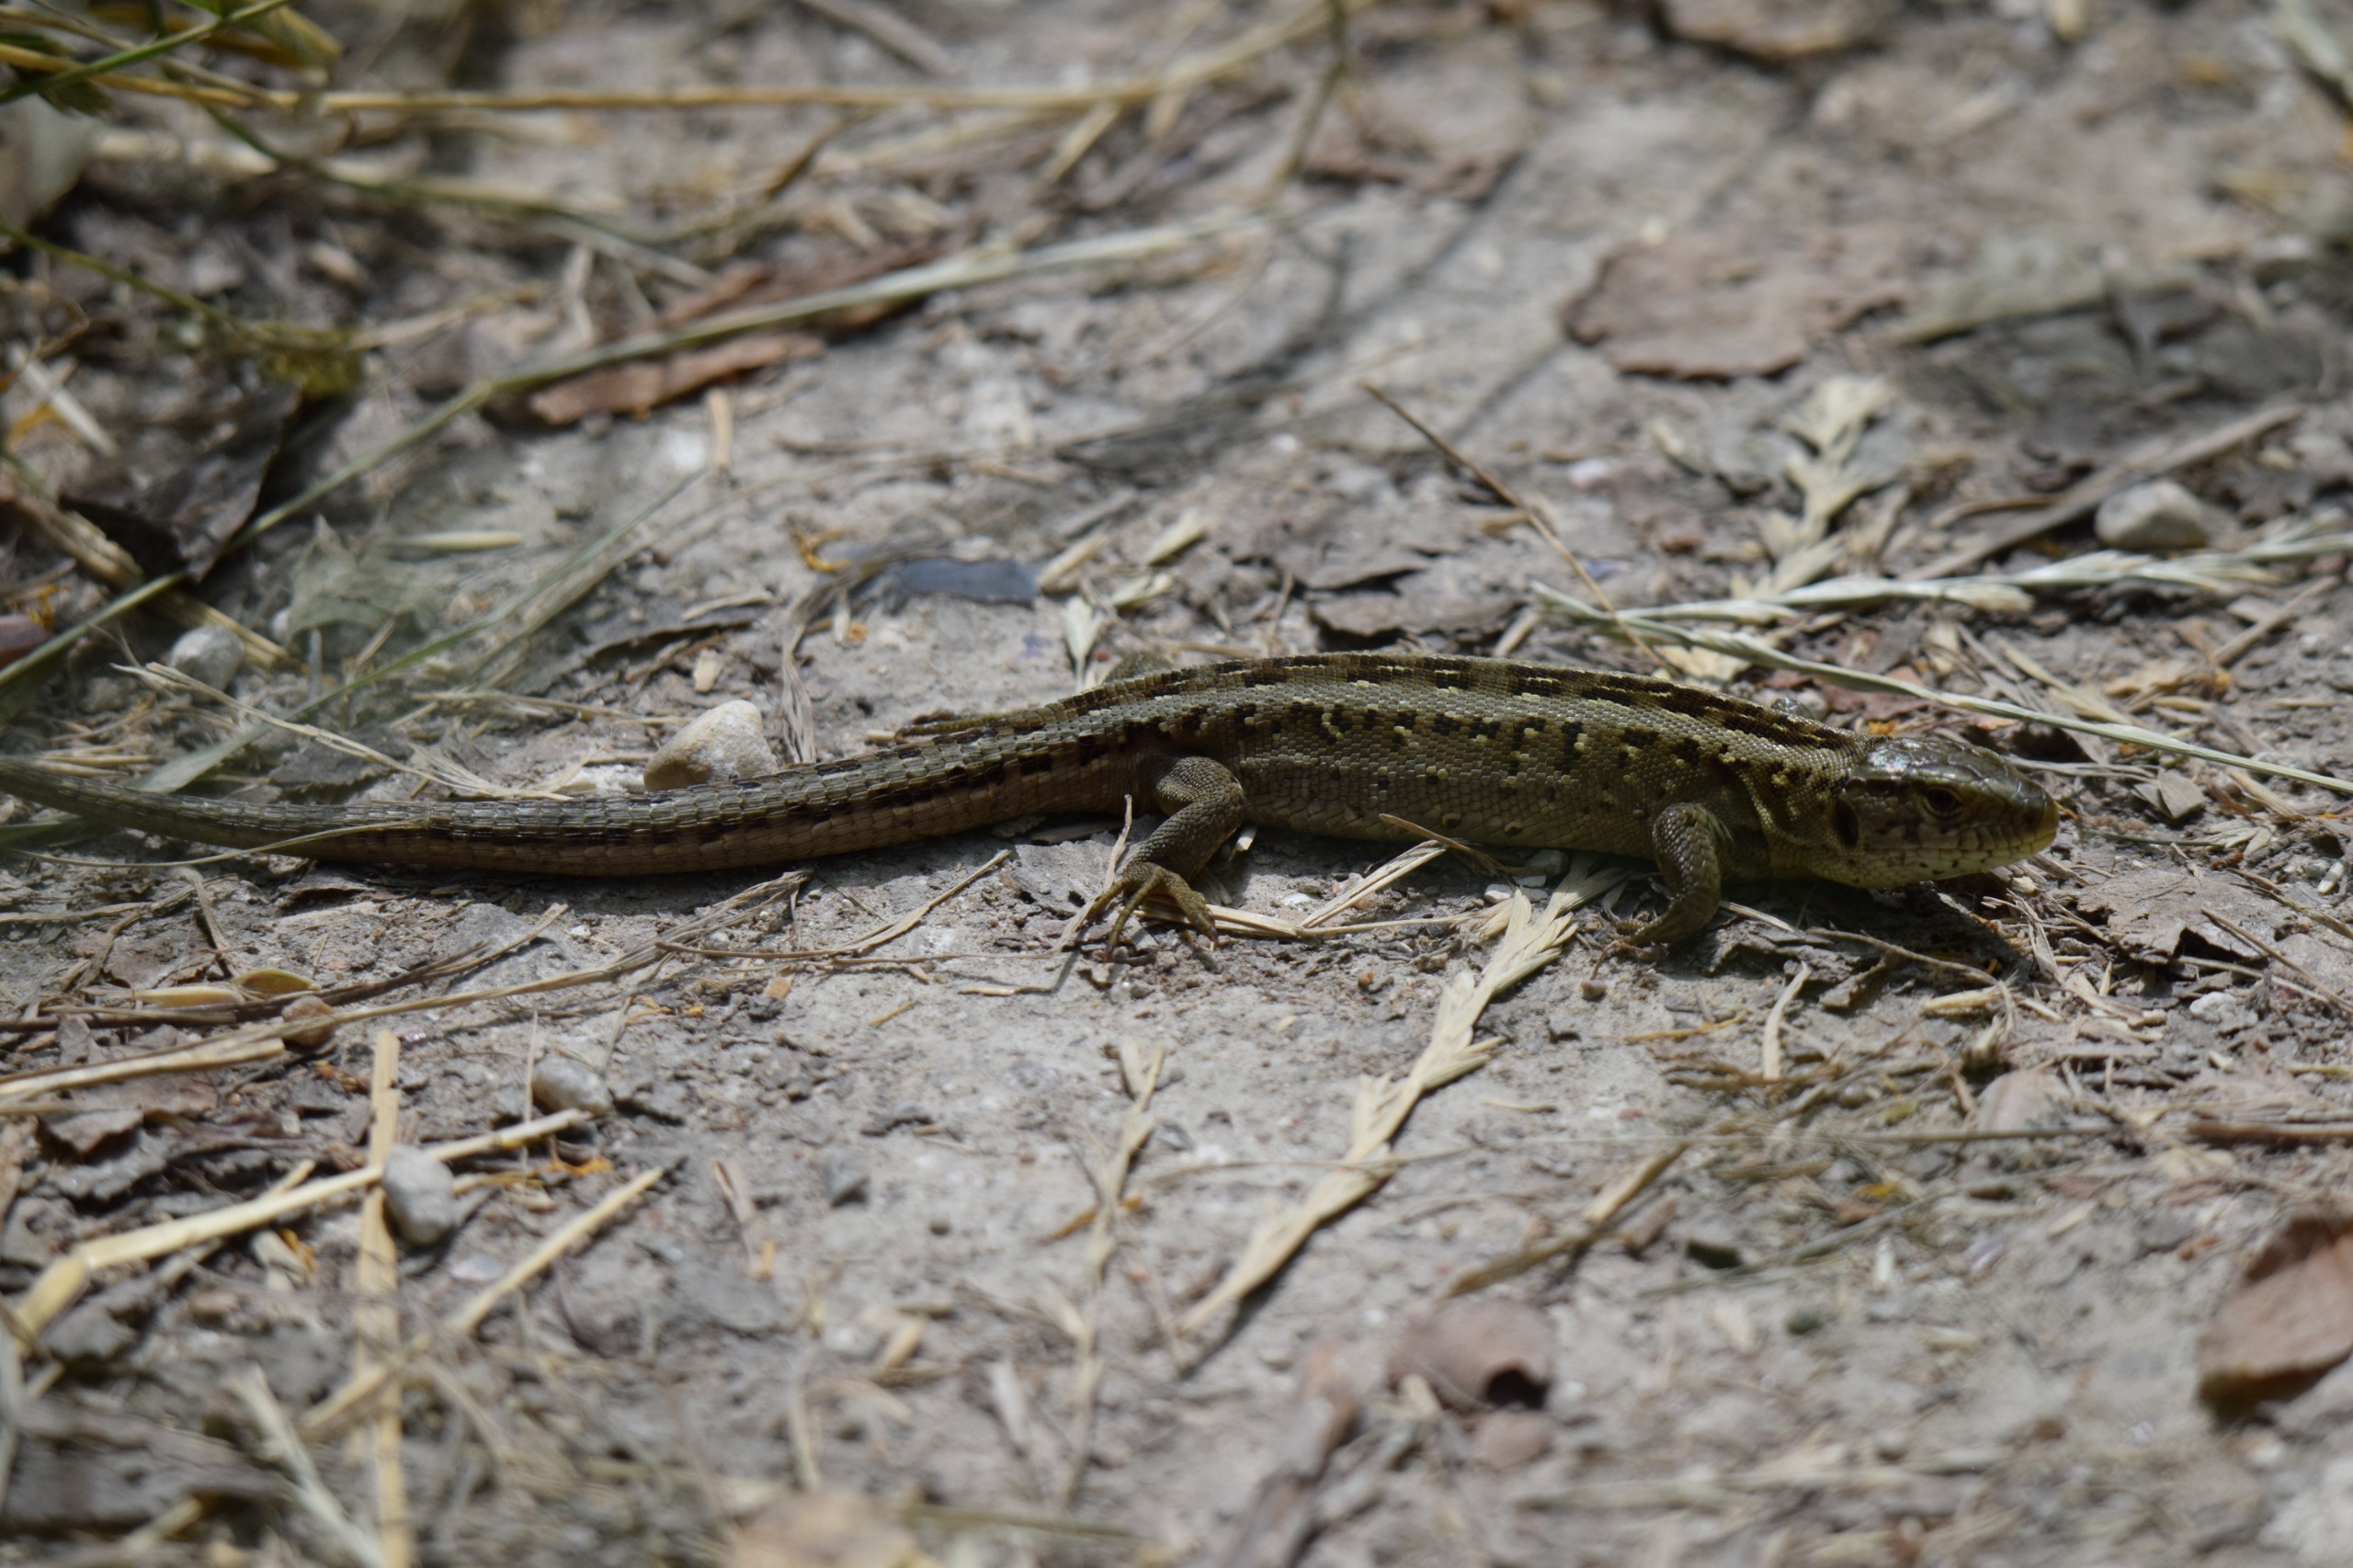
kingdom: Animalia
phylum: Chordata
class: Squamata
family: Lacertidae
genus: Lacerta
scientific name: Lacerta agilis
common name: Markfirben
